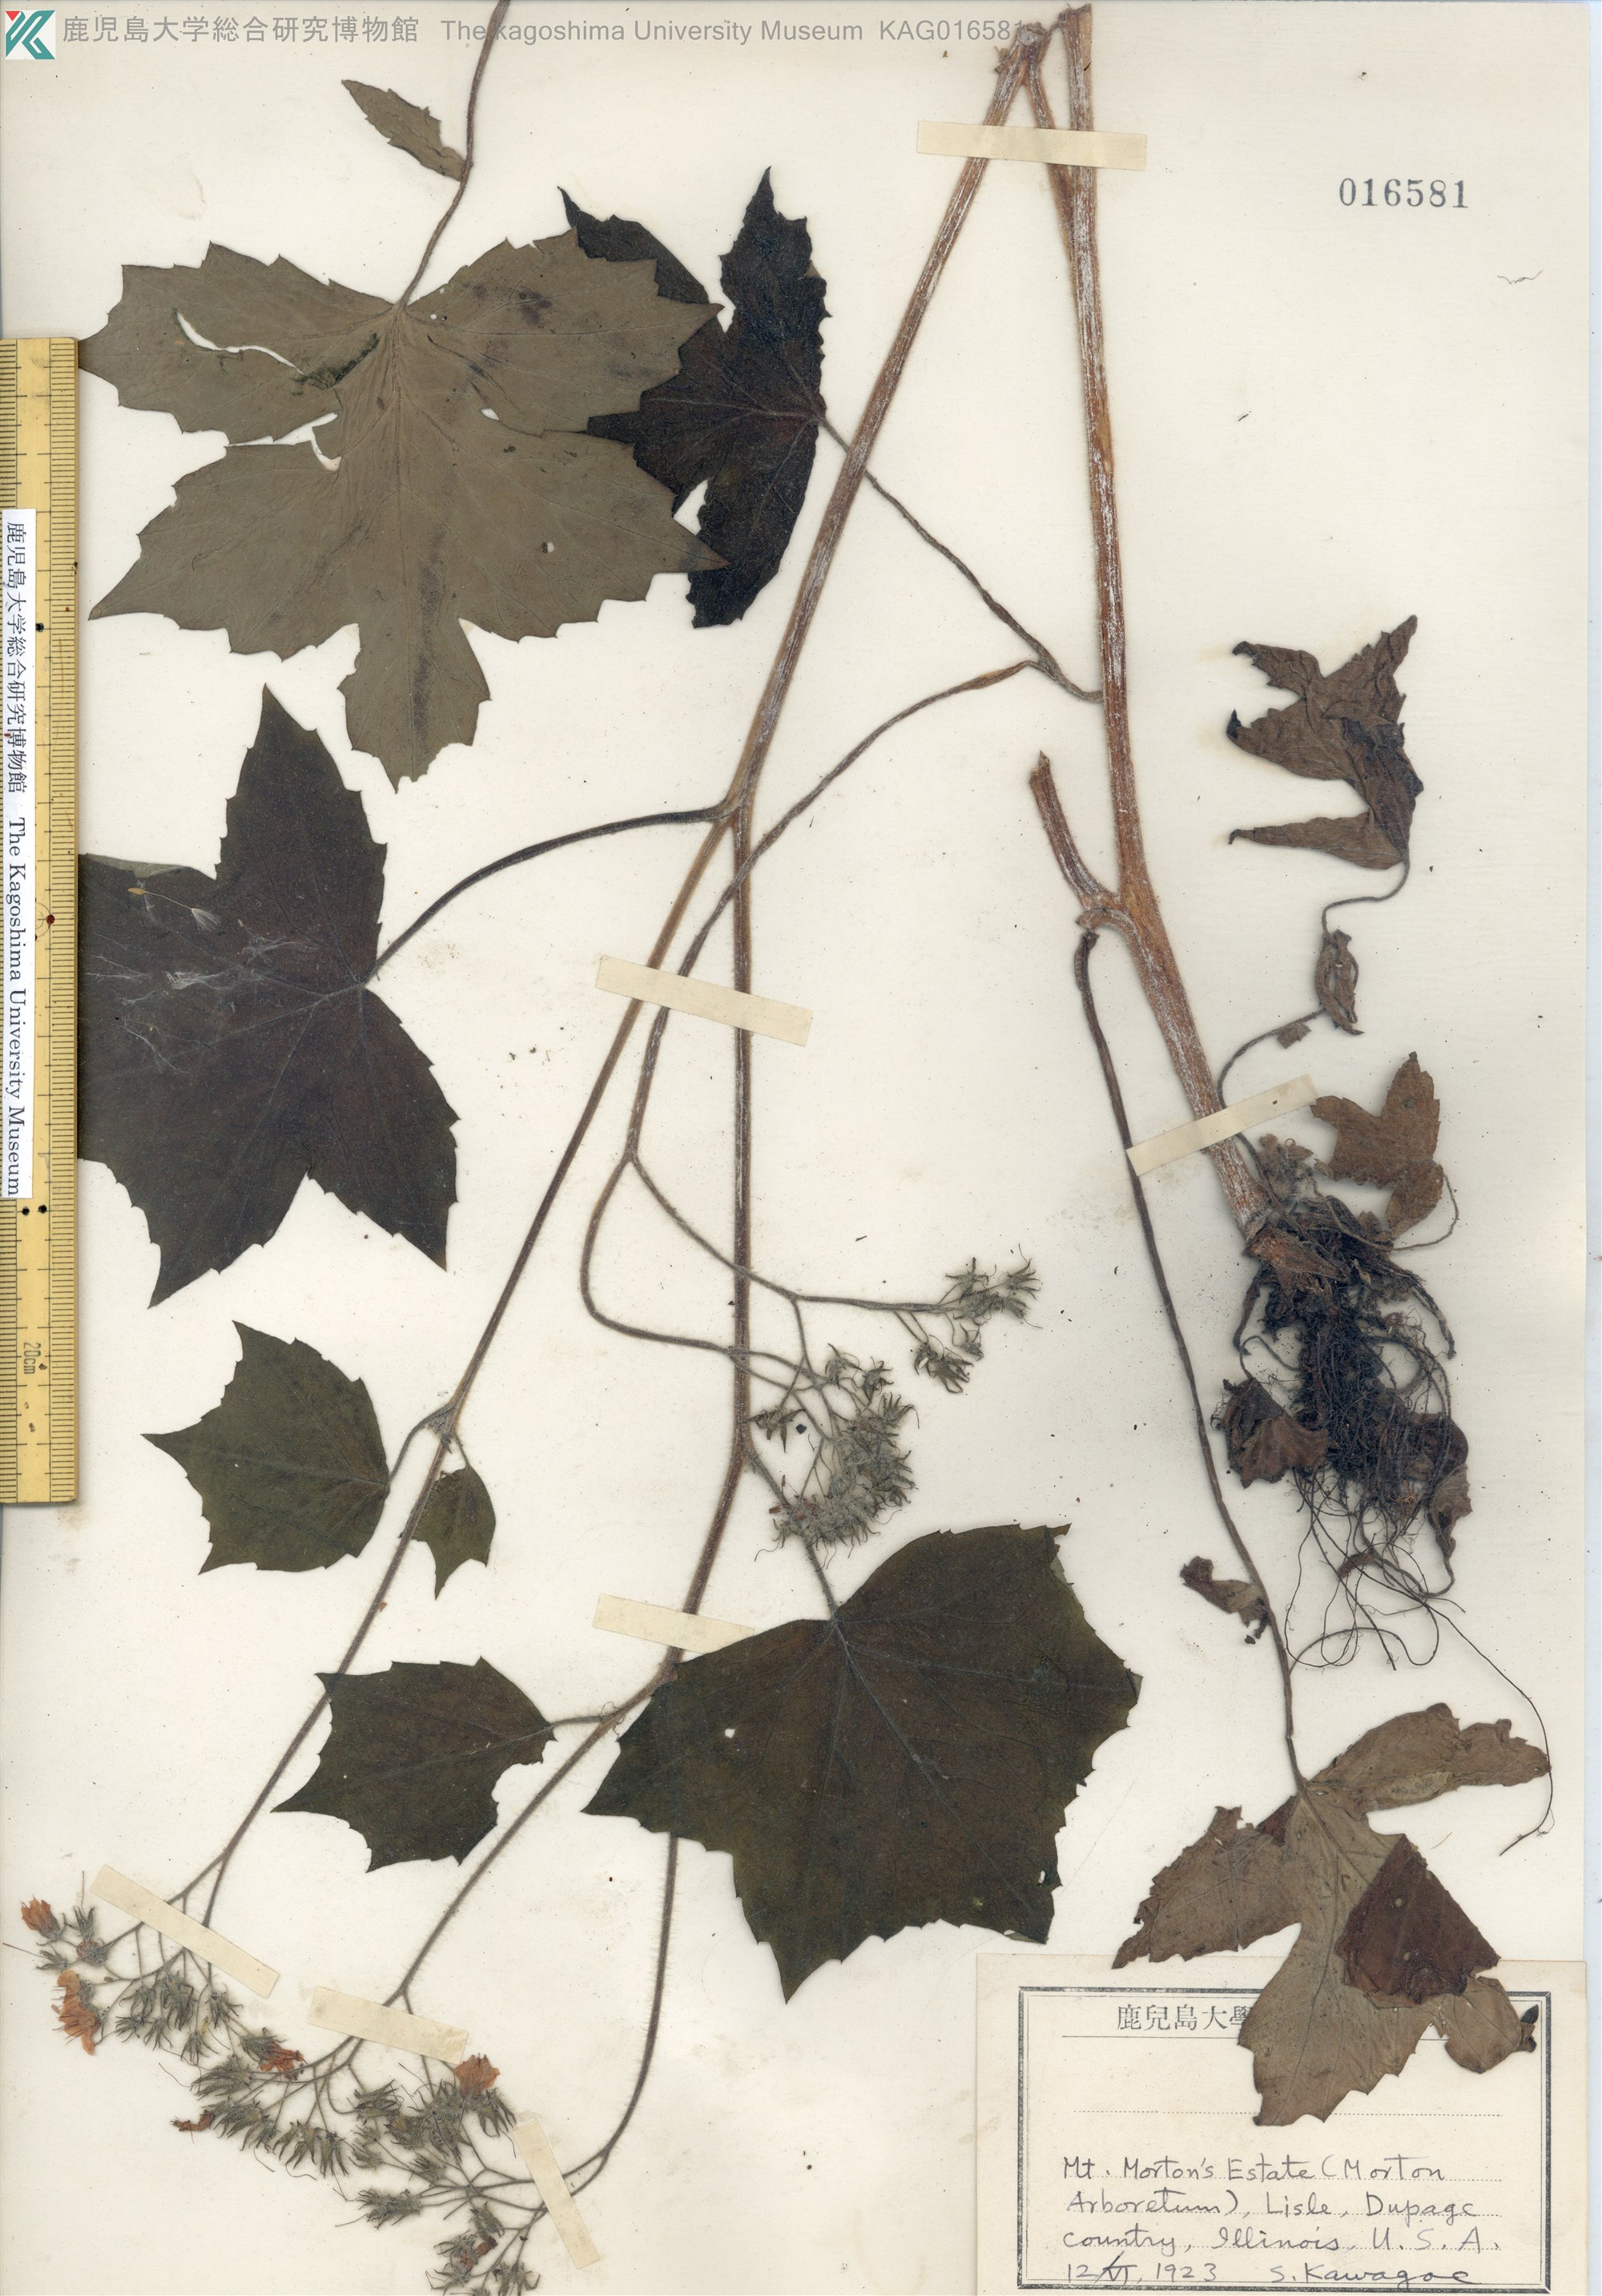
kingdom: Plantae
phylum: Tracheophyta
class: Magnoliopsida
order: Boraginales
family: Hydrophyllaceae
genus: Hydrophyllum
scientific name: Hydrophyllum virginianum
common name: Virginia waterleaf
